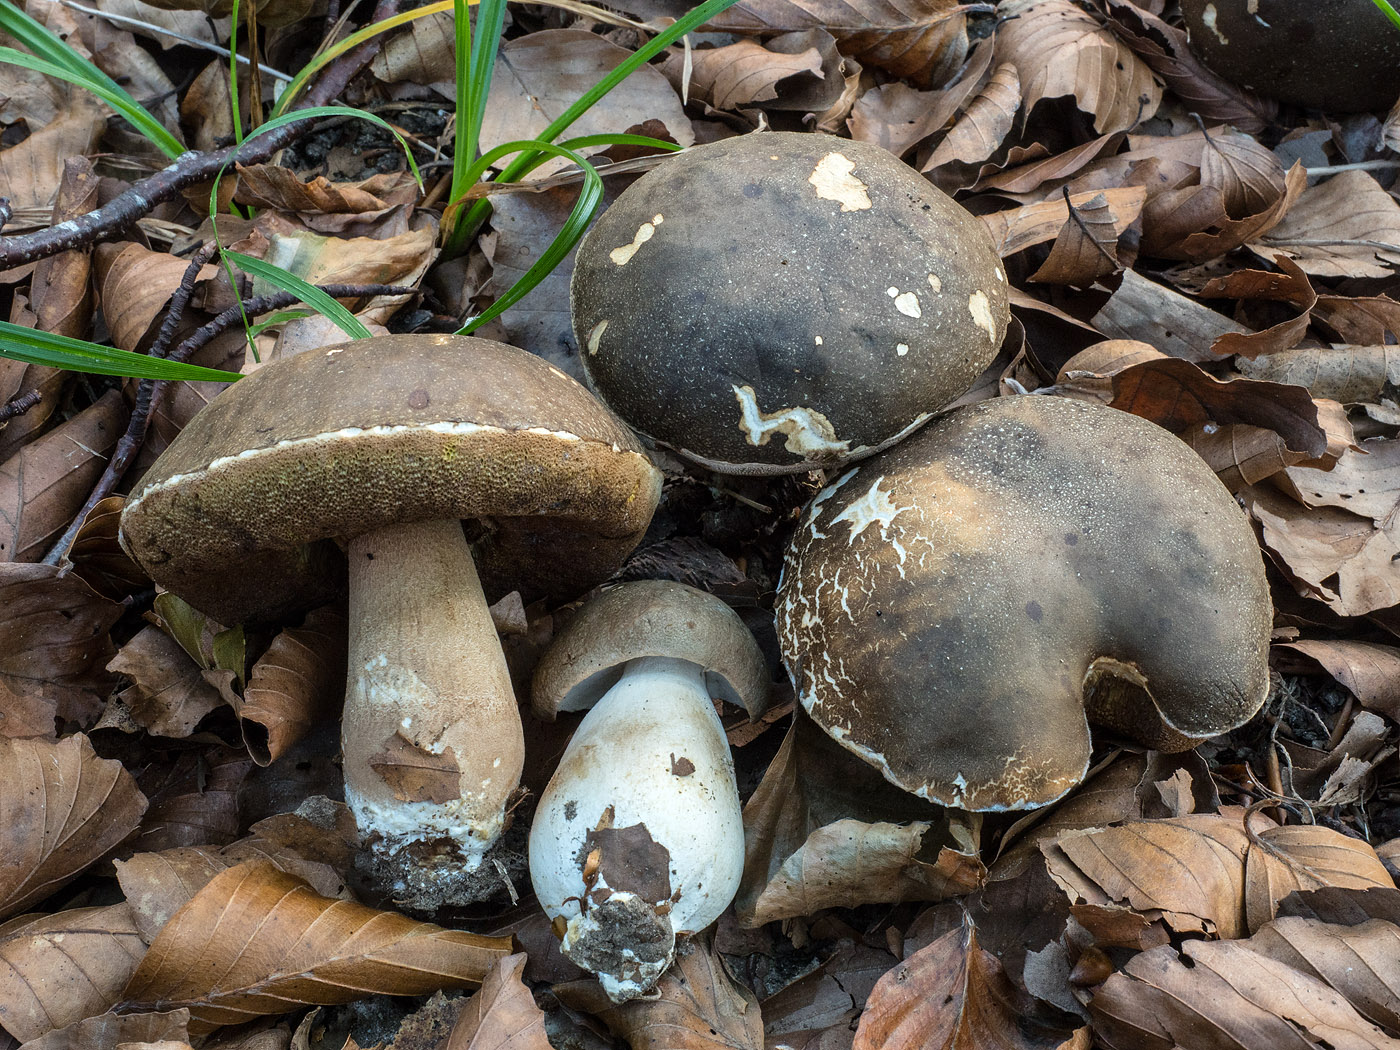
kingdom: Fungi
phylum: Basidiomycota
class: Agaricomycetes
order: Boletales
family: Boletaceae
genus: Boletus
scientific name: Boletus aereus
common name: bronze-rørhat
